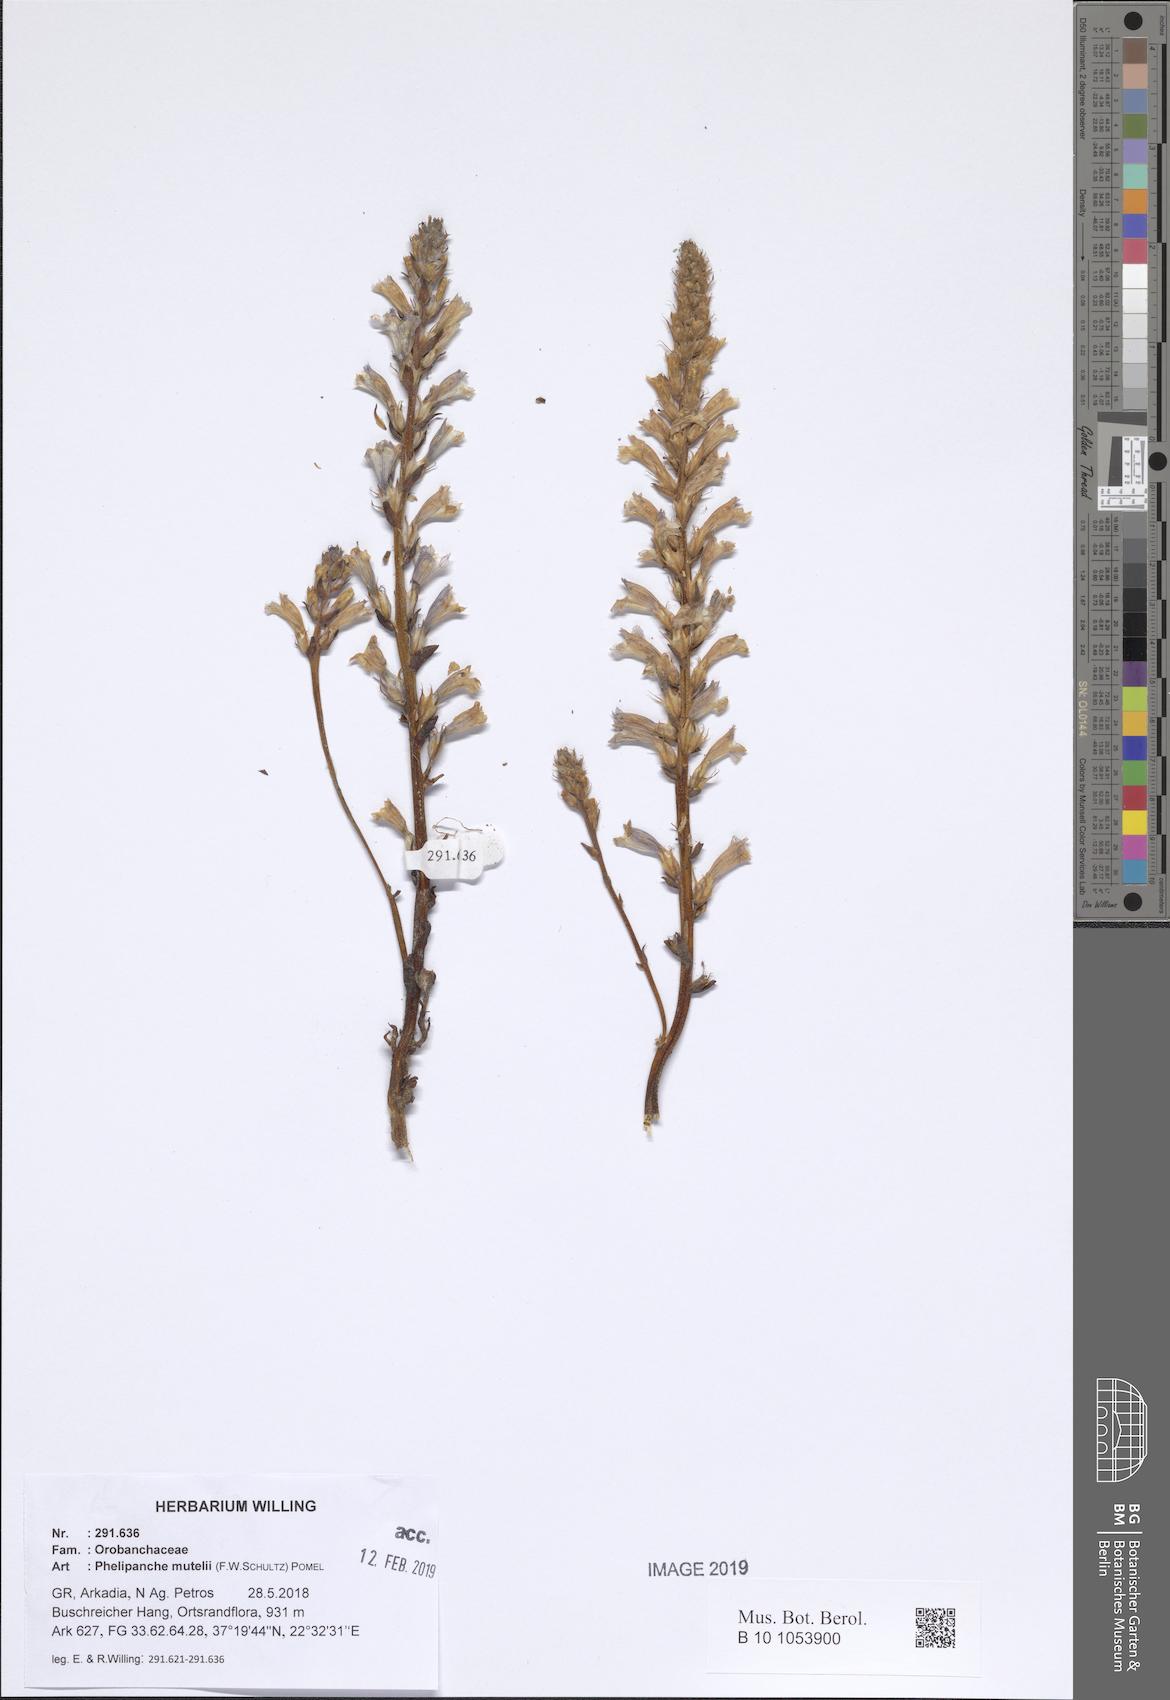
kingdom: Plantae
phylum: Tracheophyta
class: Magnoliopsida
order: Lamiales
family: Orobanchaceae
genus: Phelipanche
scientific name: Phelipanche mutelii
